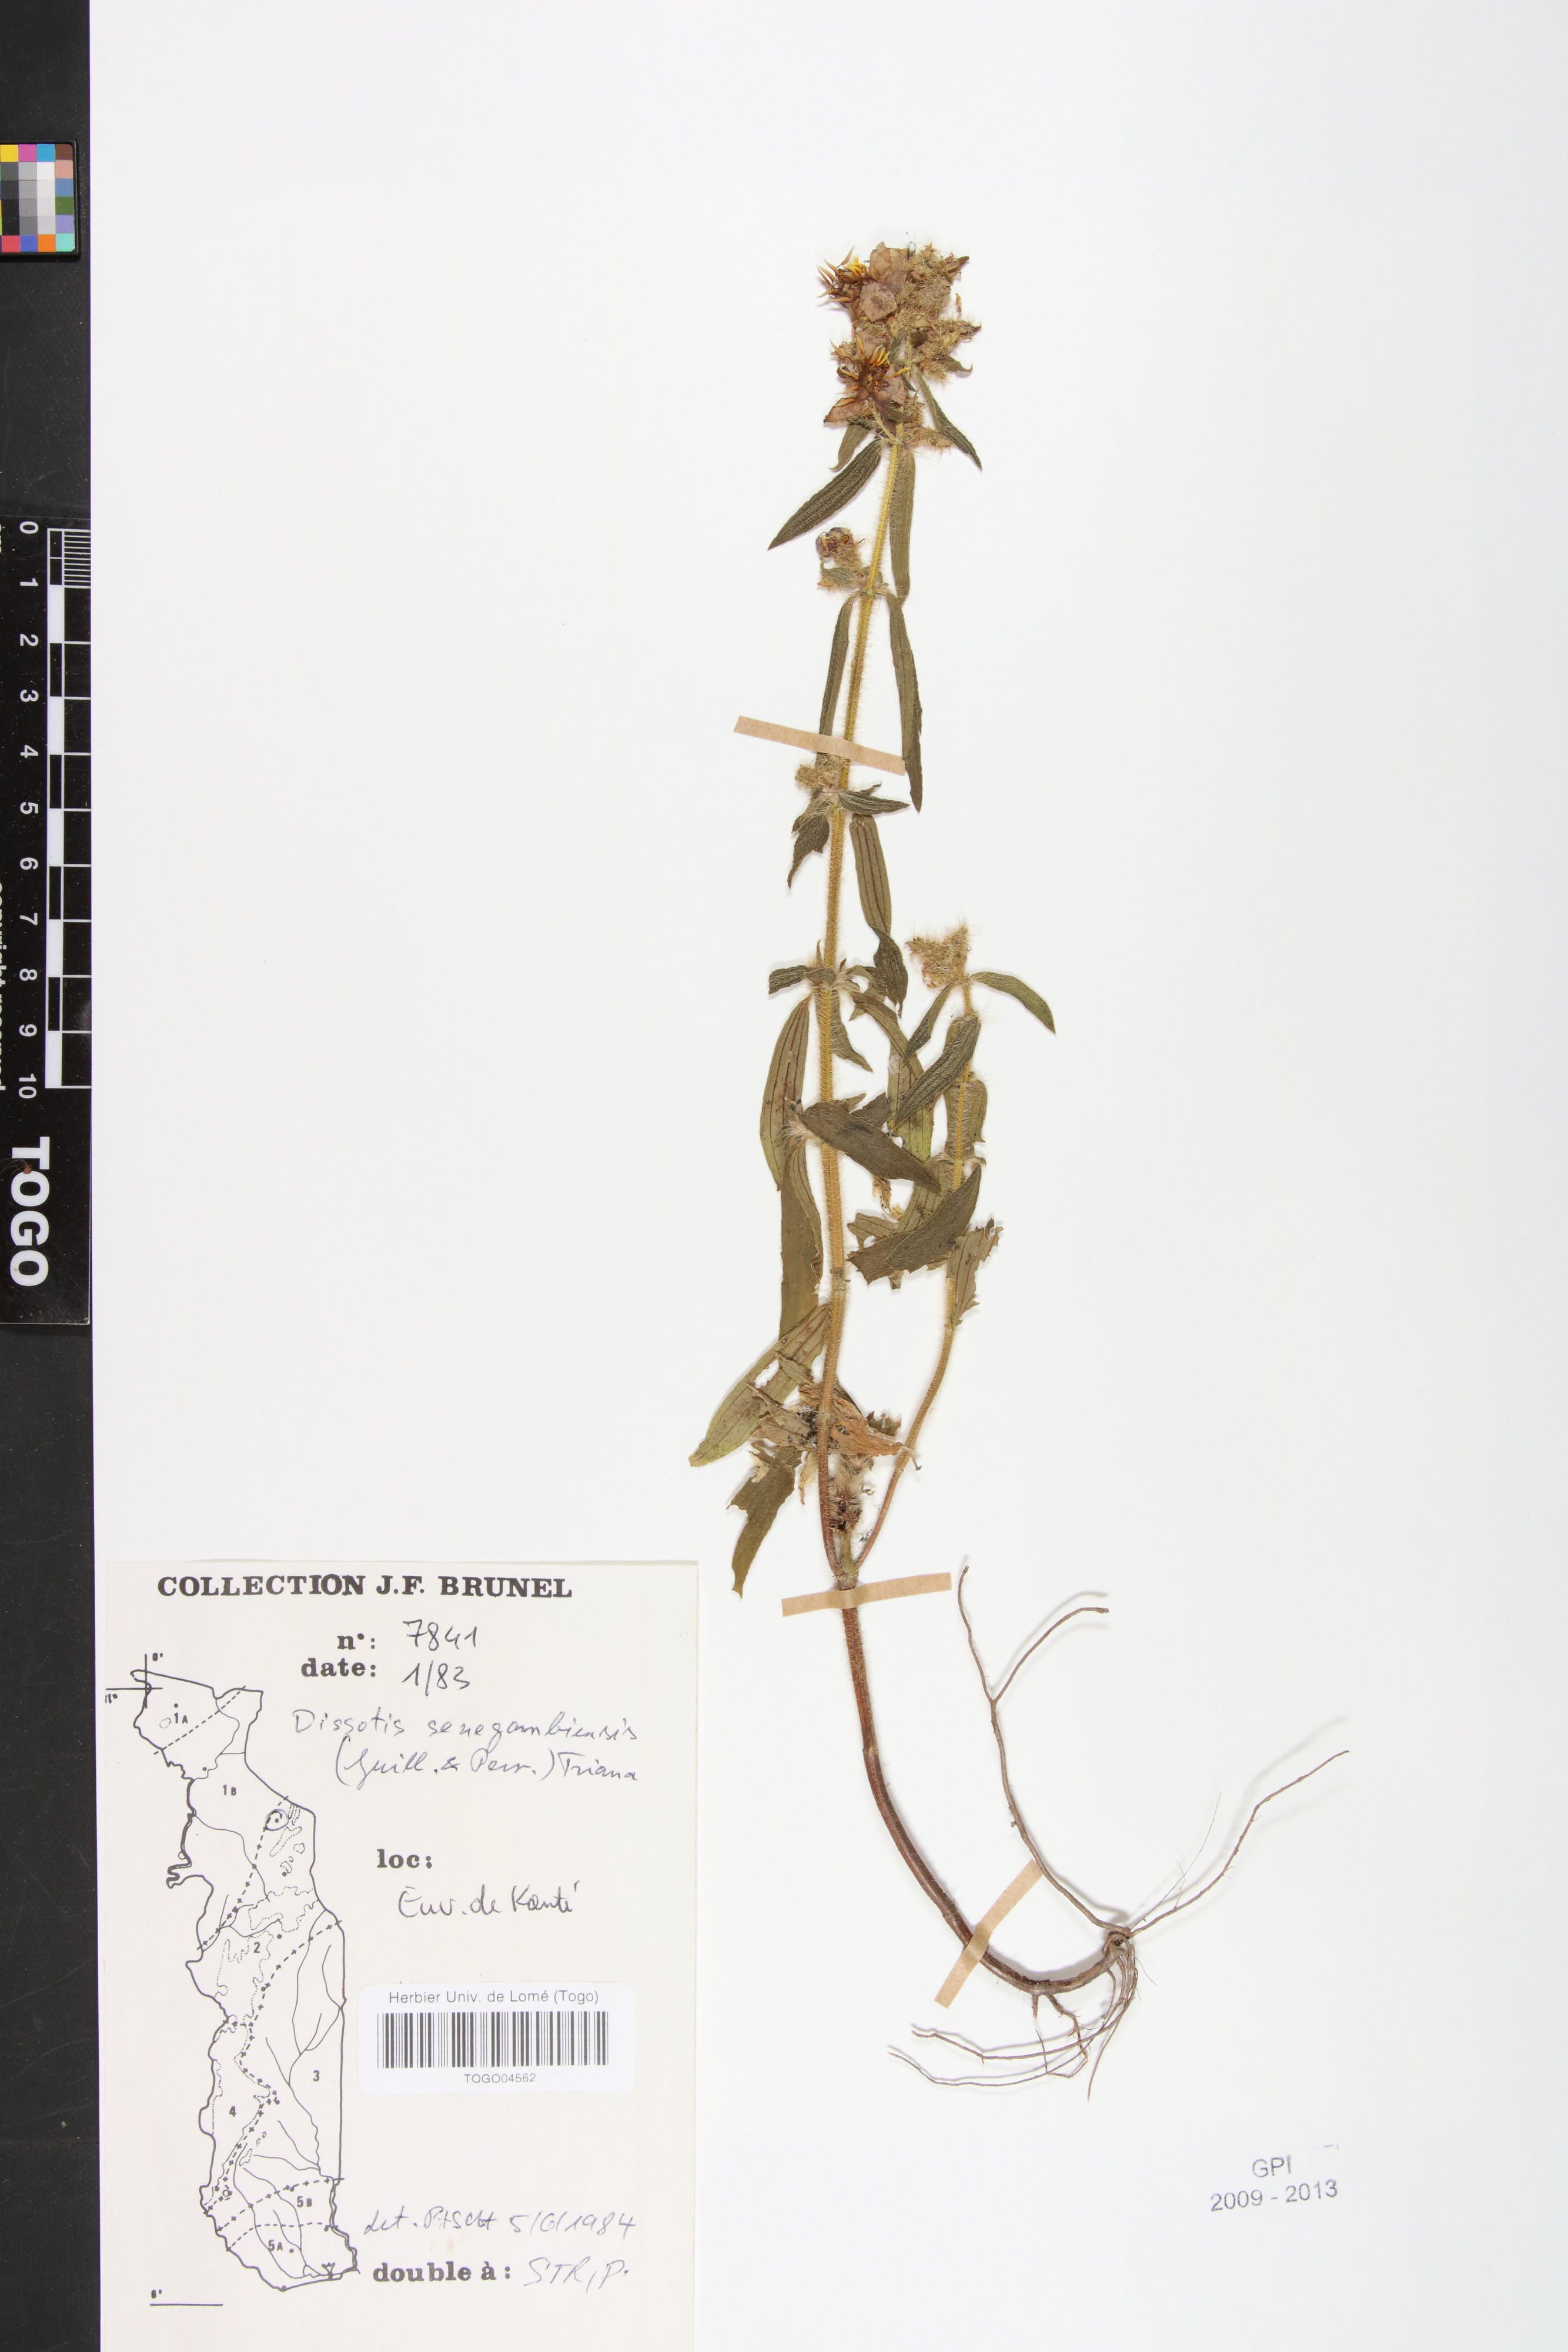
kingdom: Plantae
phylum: Tracheophyta
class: Magnoliopsida
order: Myrtales
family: Melastomataceae
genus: Antherotoma
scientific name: Antherotoma irvingiana
